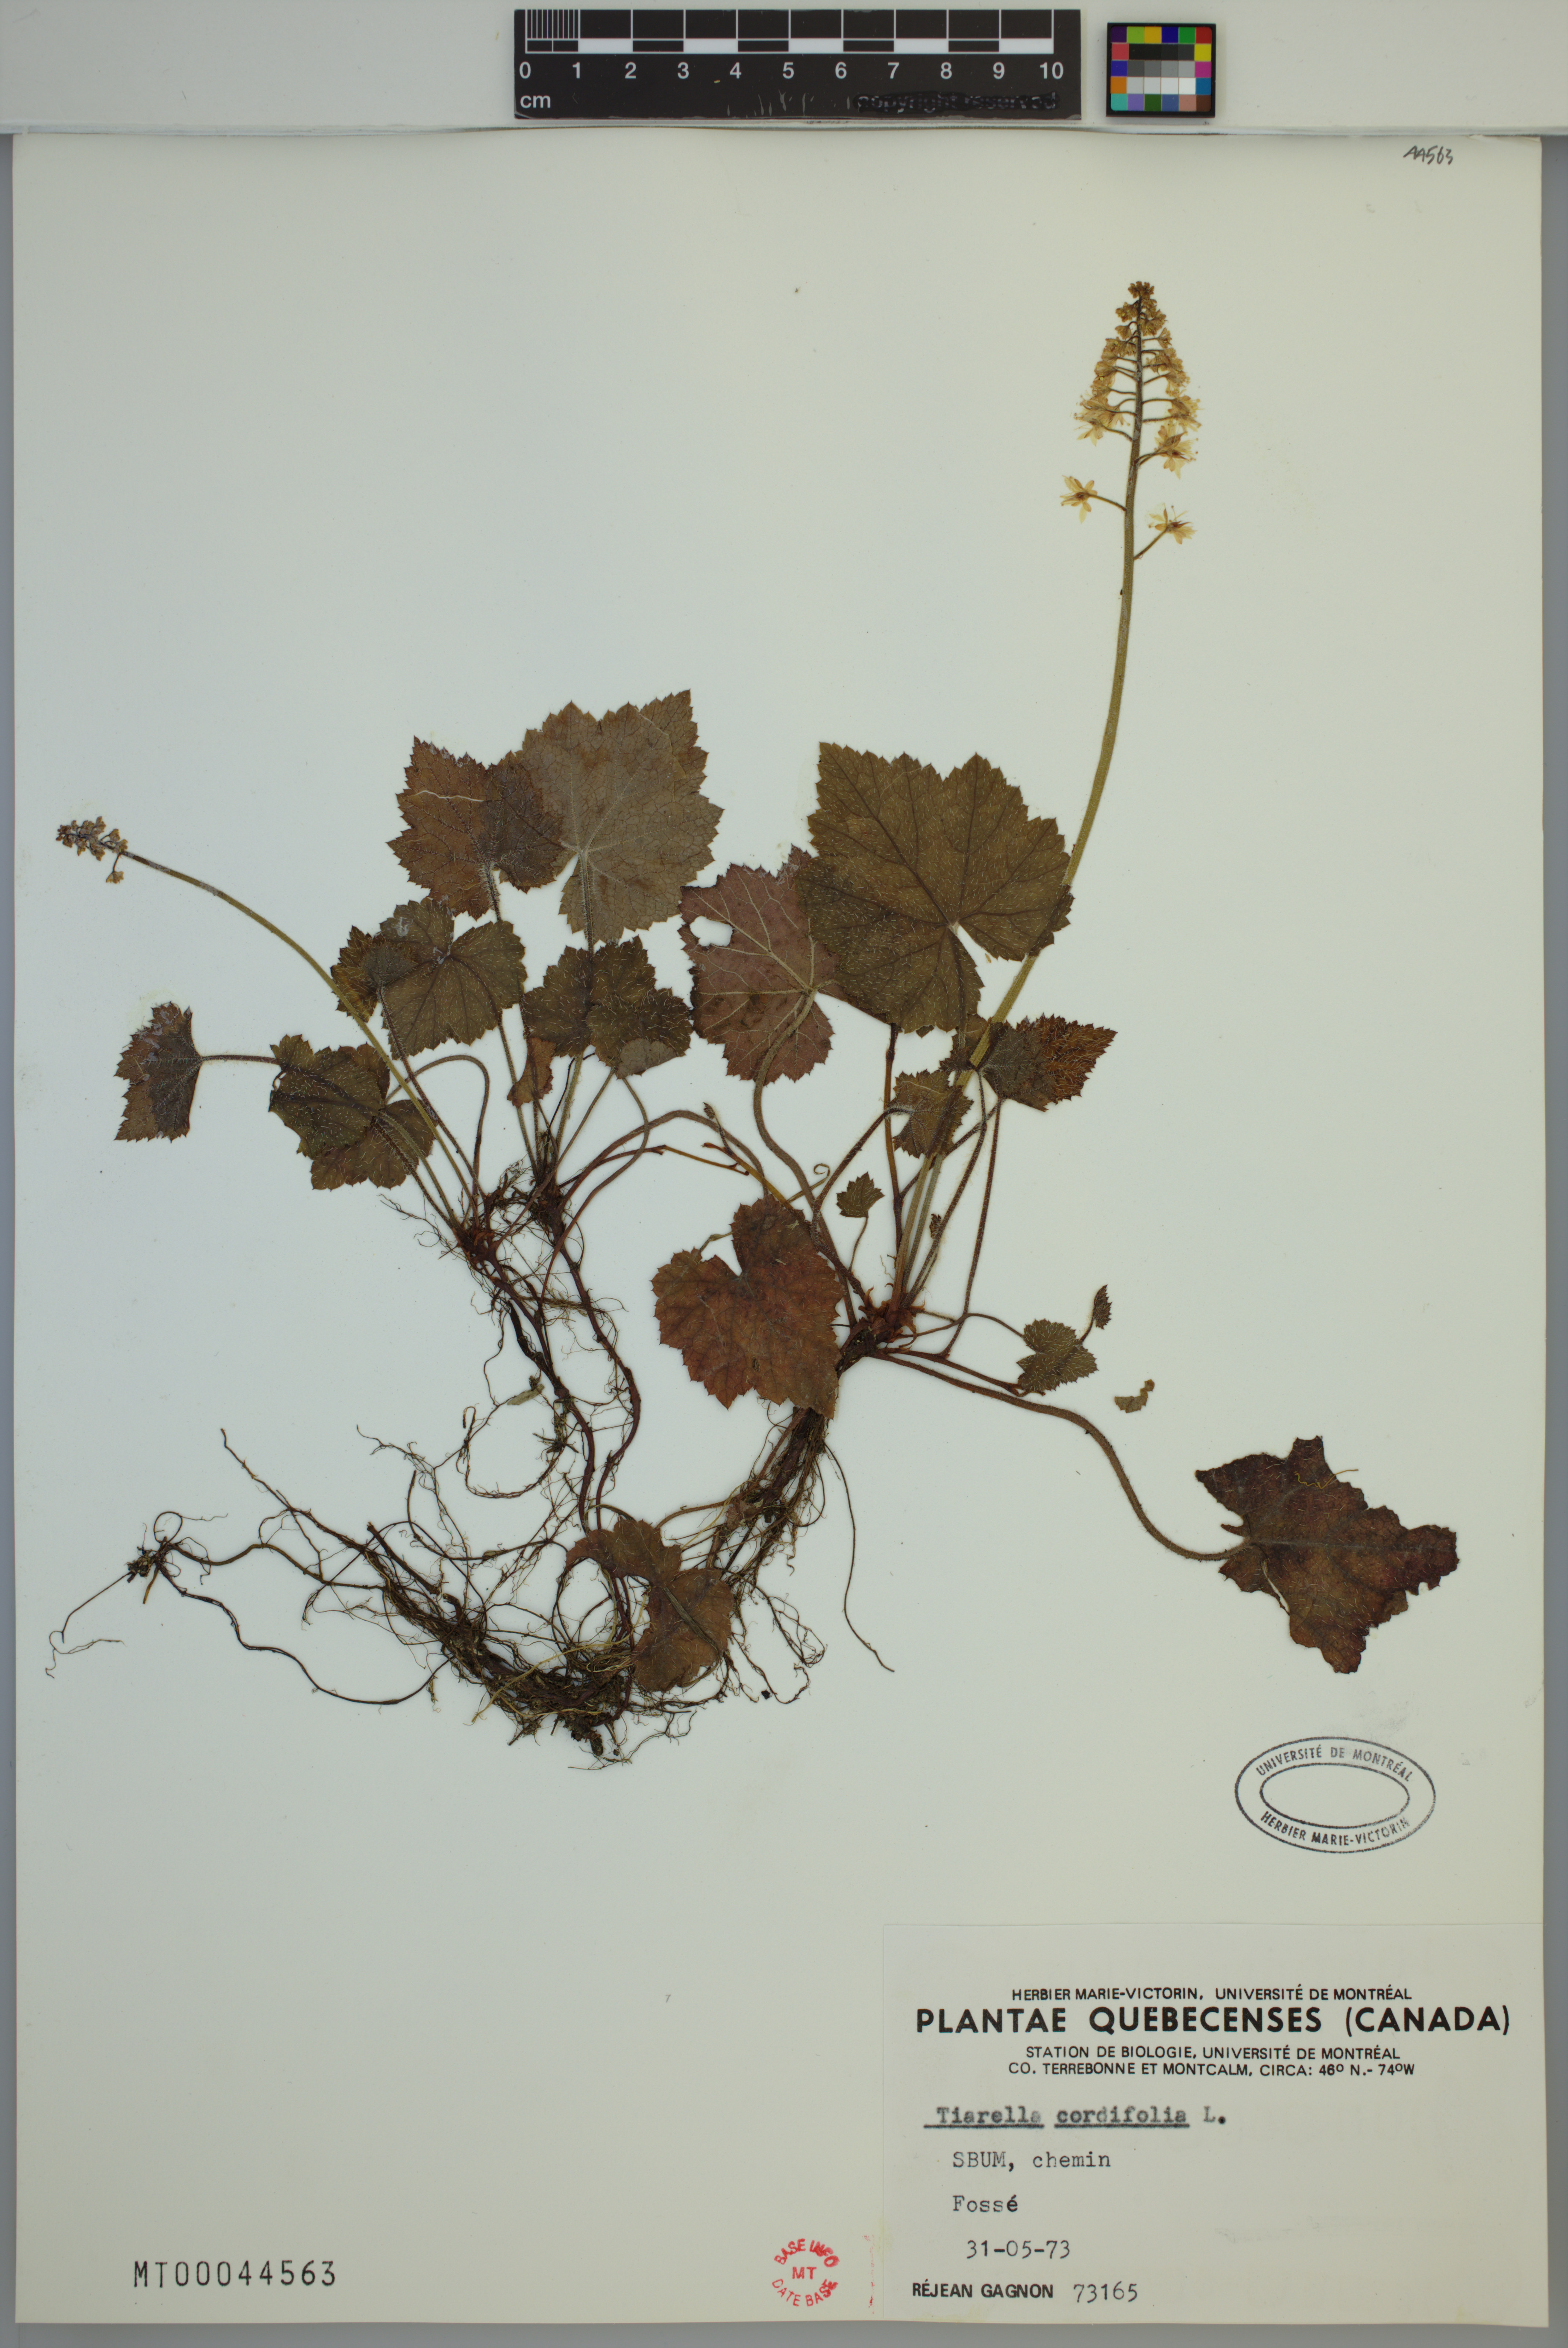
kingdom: Plantae
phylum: Tracheophyta
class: Magnoliopsida
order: Saxifragales
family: Saxifragaceae
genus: Tiarella
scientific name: Tiarella cordifolia
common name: Foamflower
